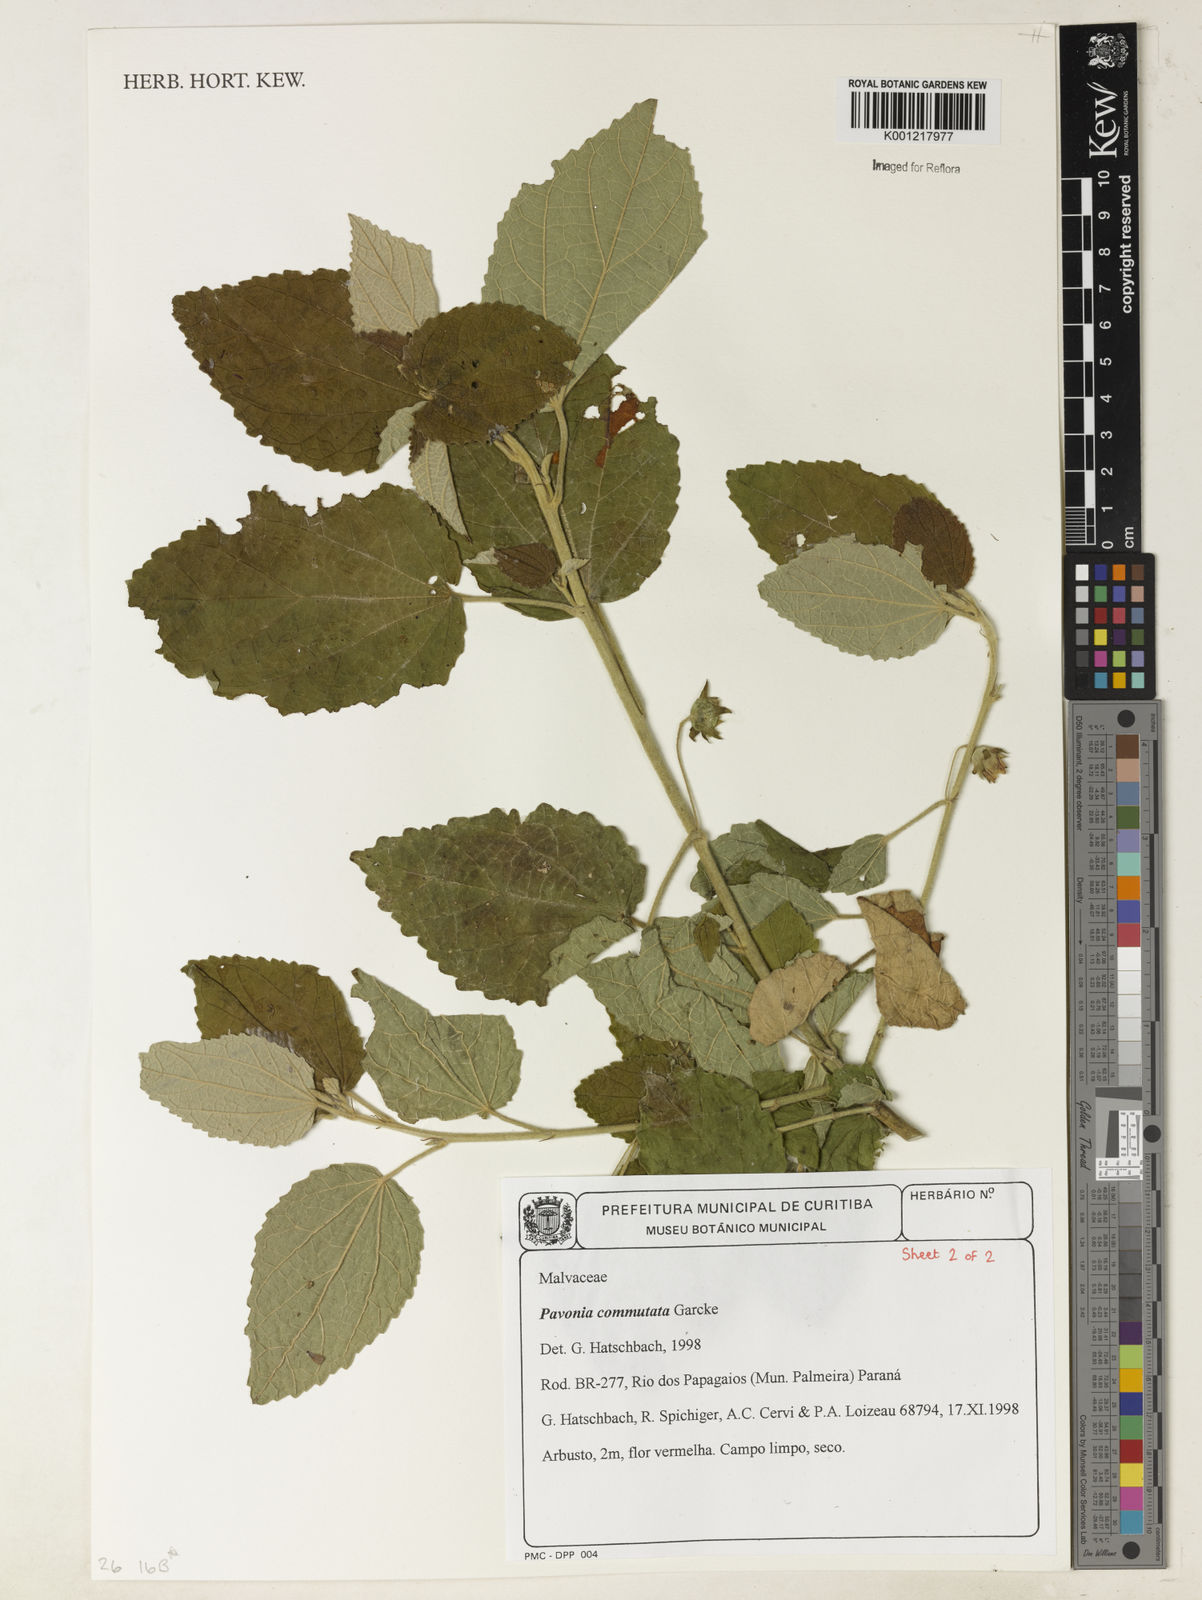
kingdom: Plantae
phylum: Tracheophyta
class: Magnoliopsida
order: Malvales
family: Malvaceae
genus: Pavonia
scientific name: Pavonia commutata
